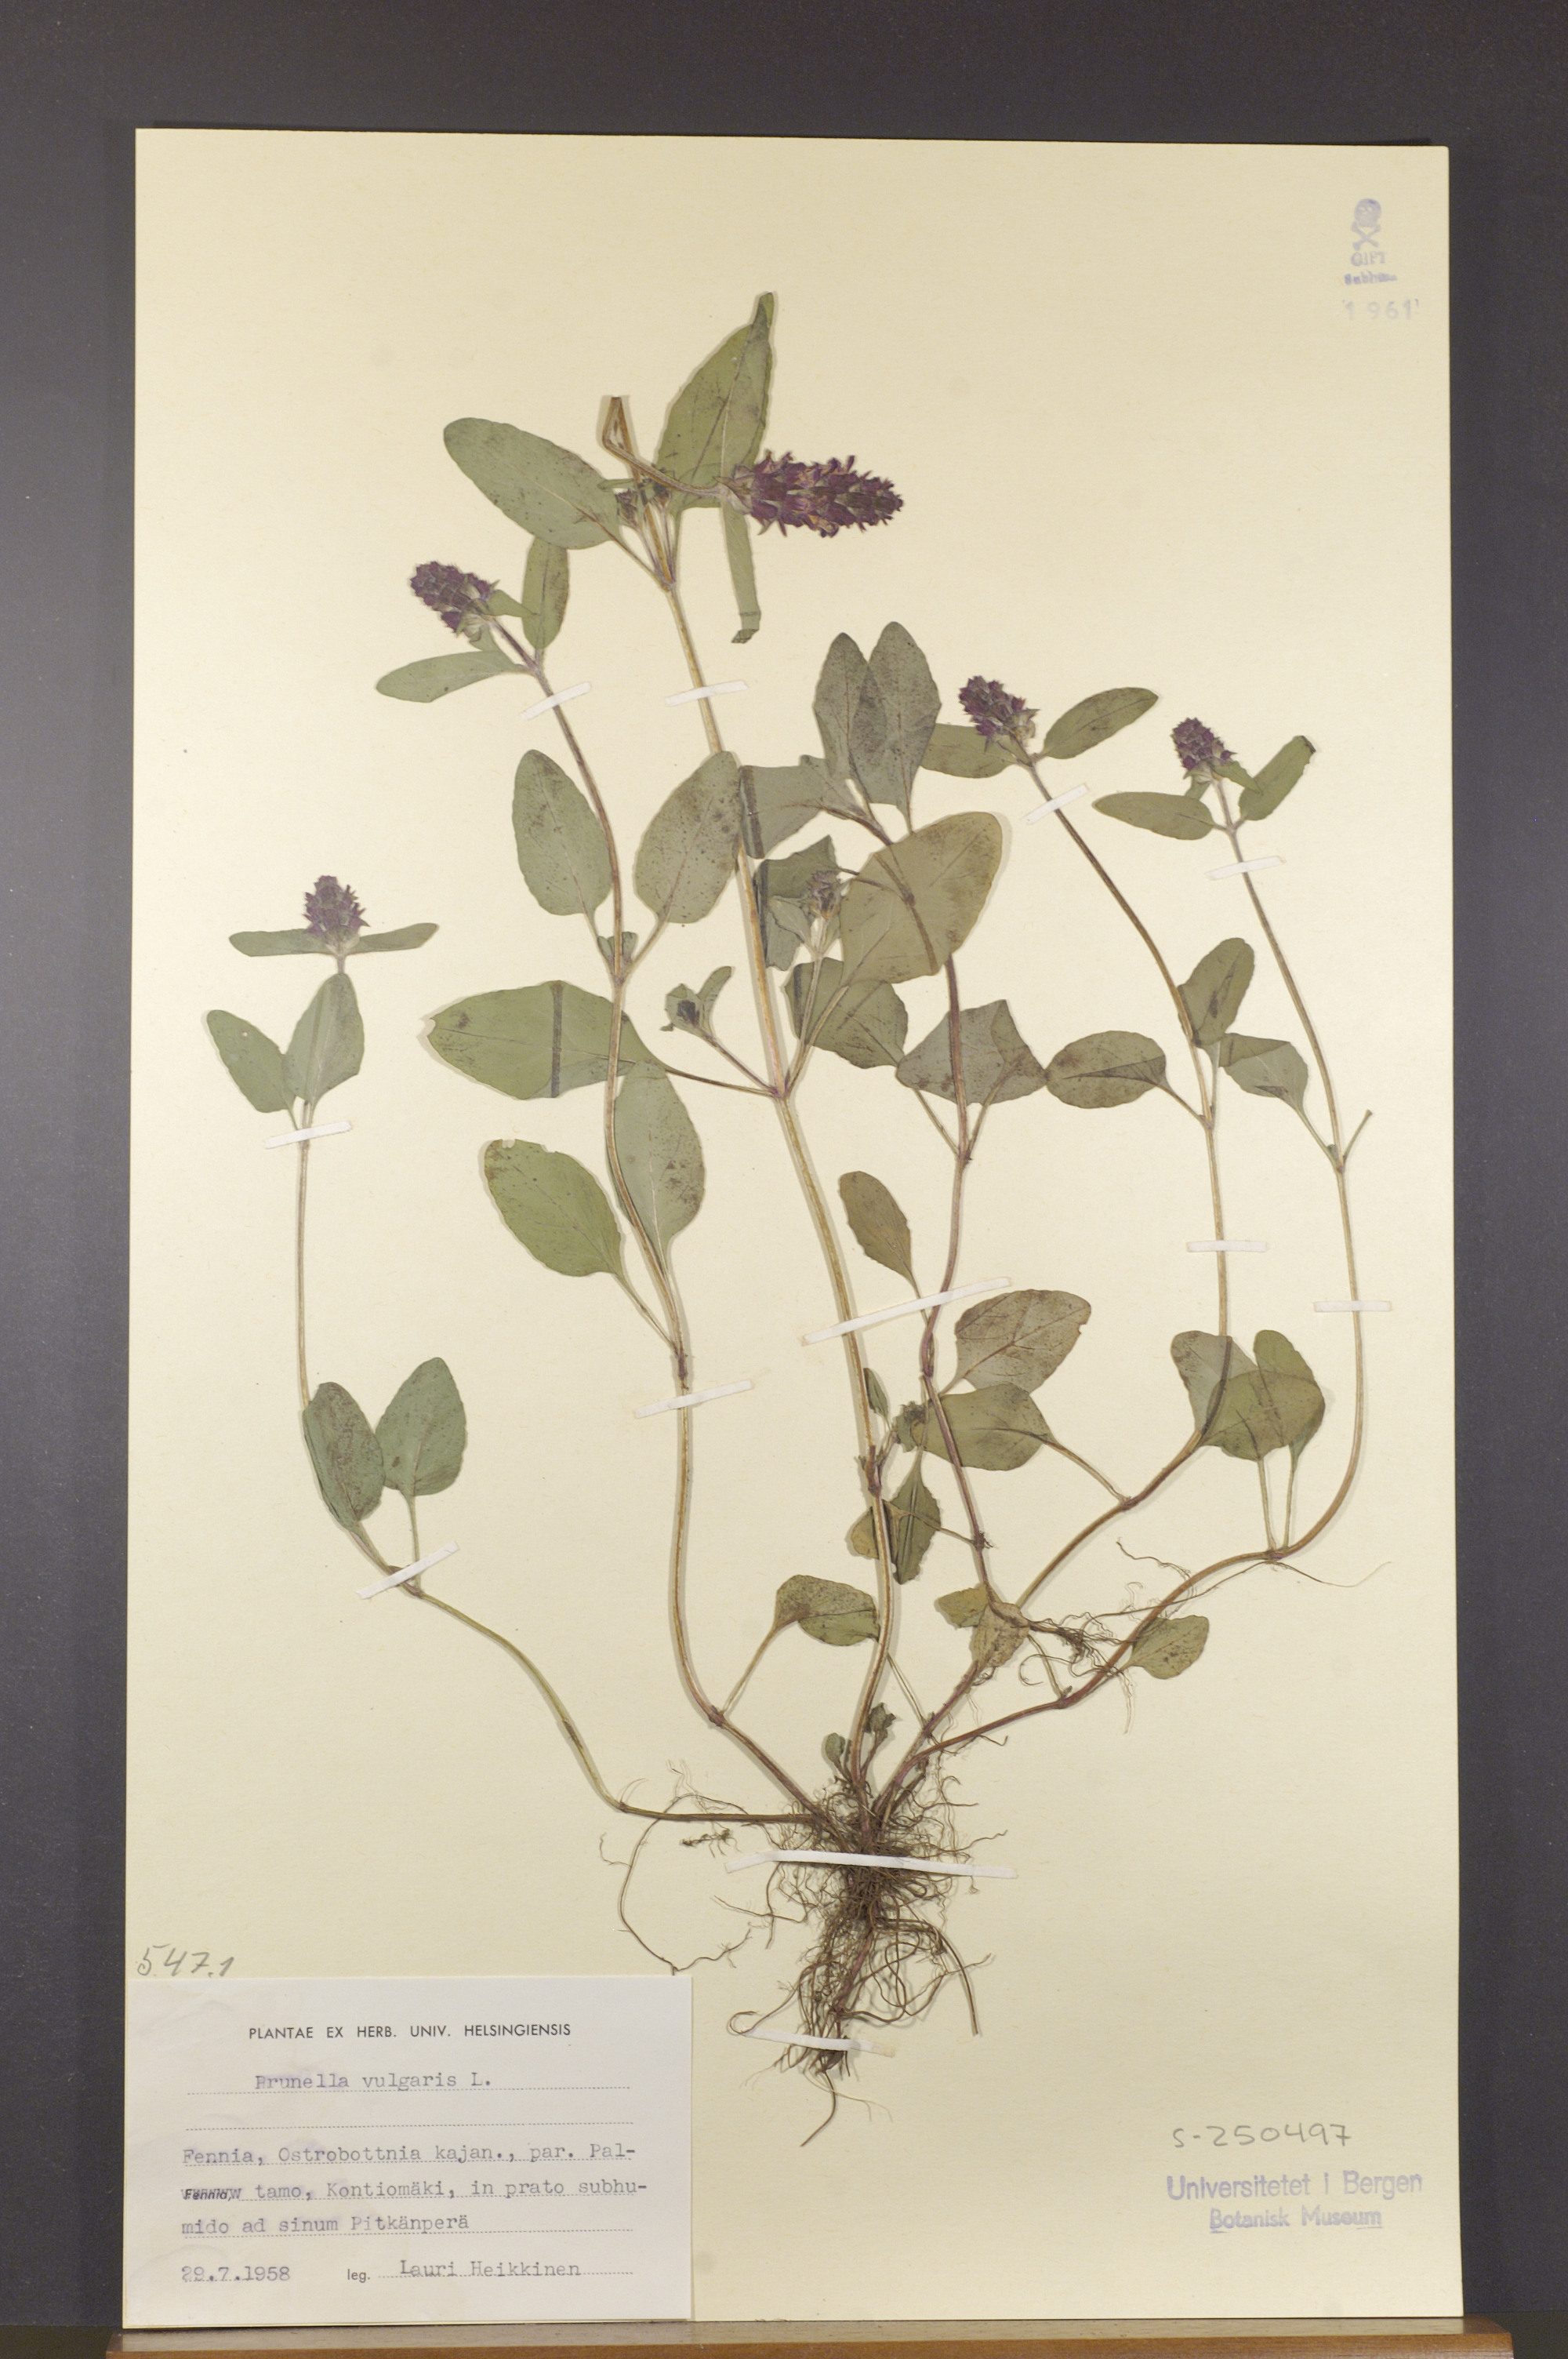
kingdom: Plantae
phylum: Tracheophyta
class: Magnoliopsida
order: Lamiales
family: Lamiaceae
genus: Prunella
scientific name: Prunella vulgaris
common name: Heal-all
